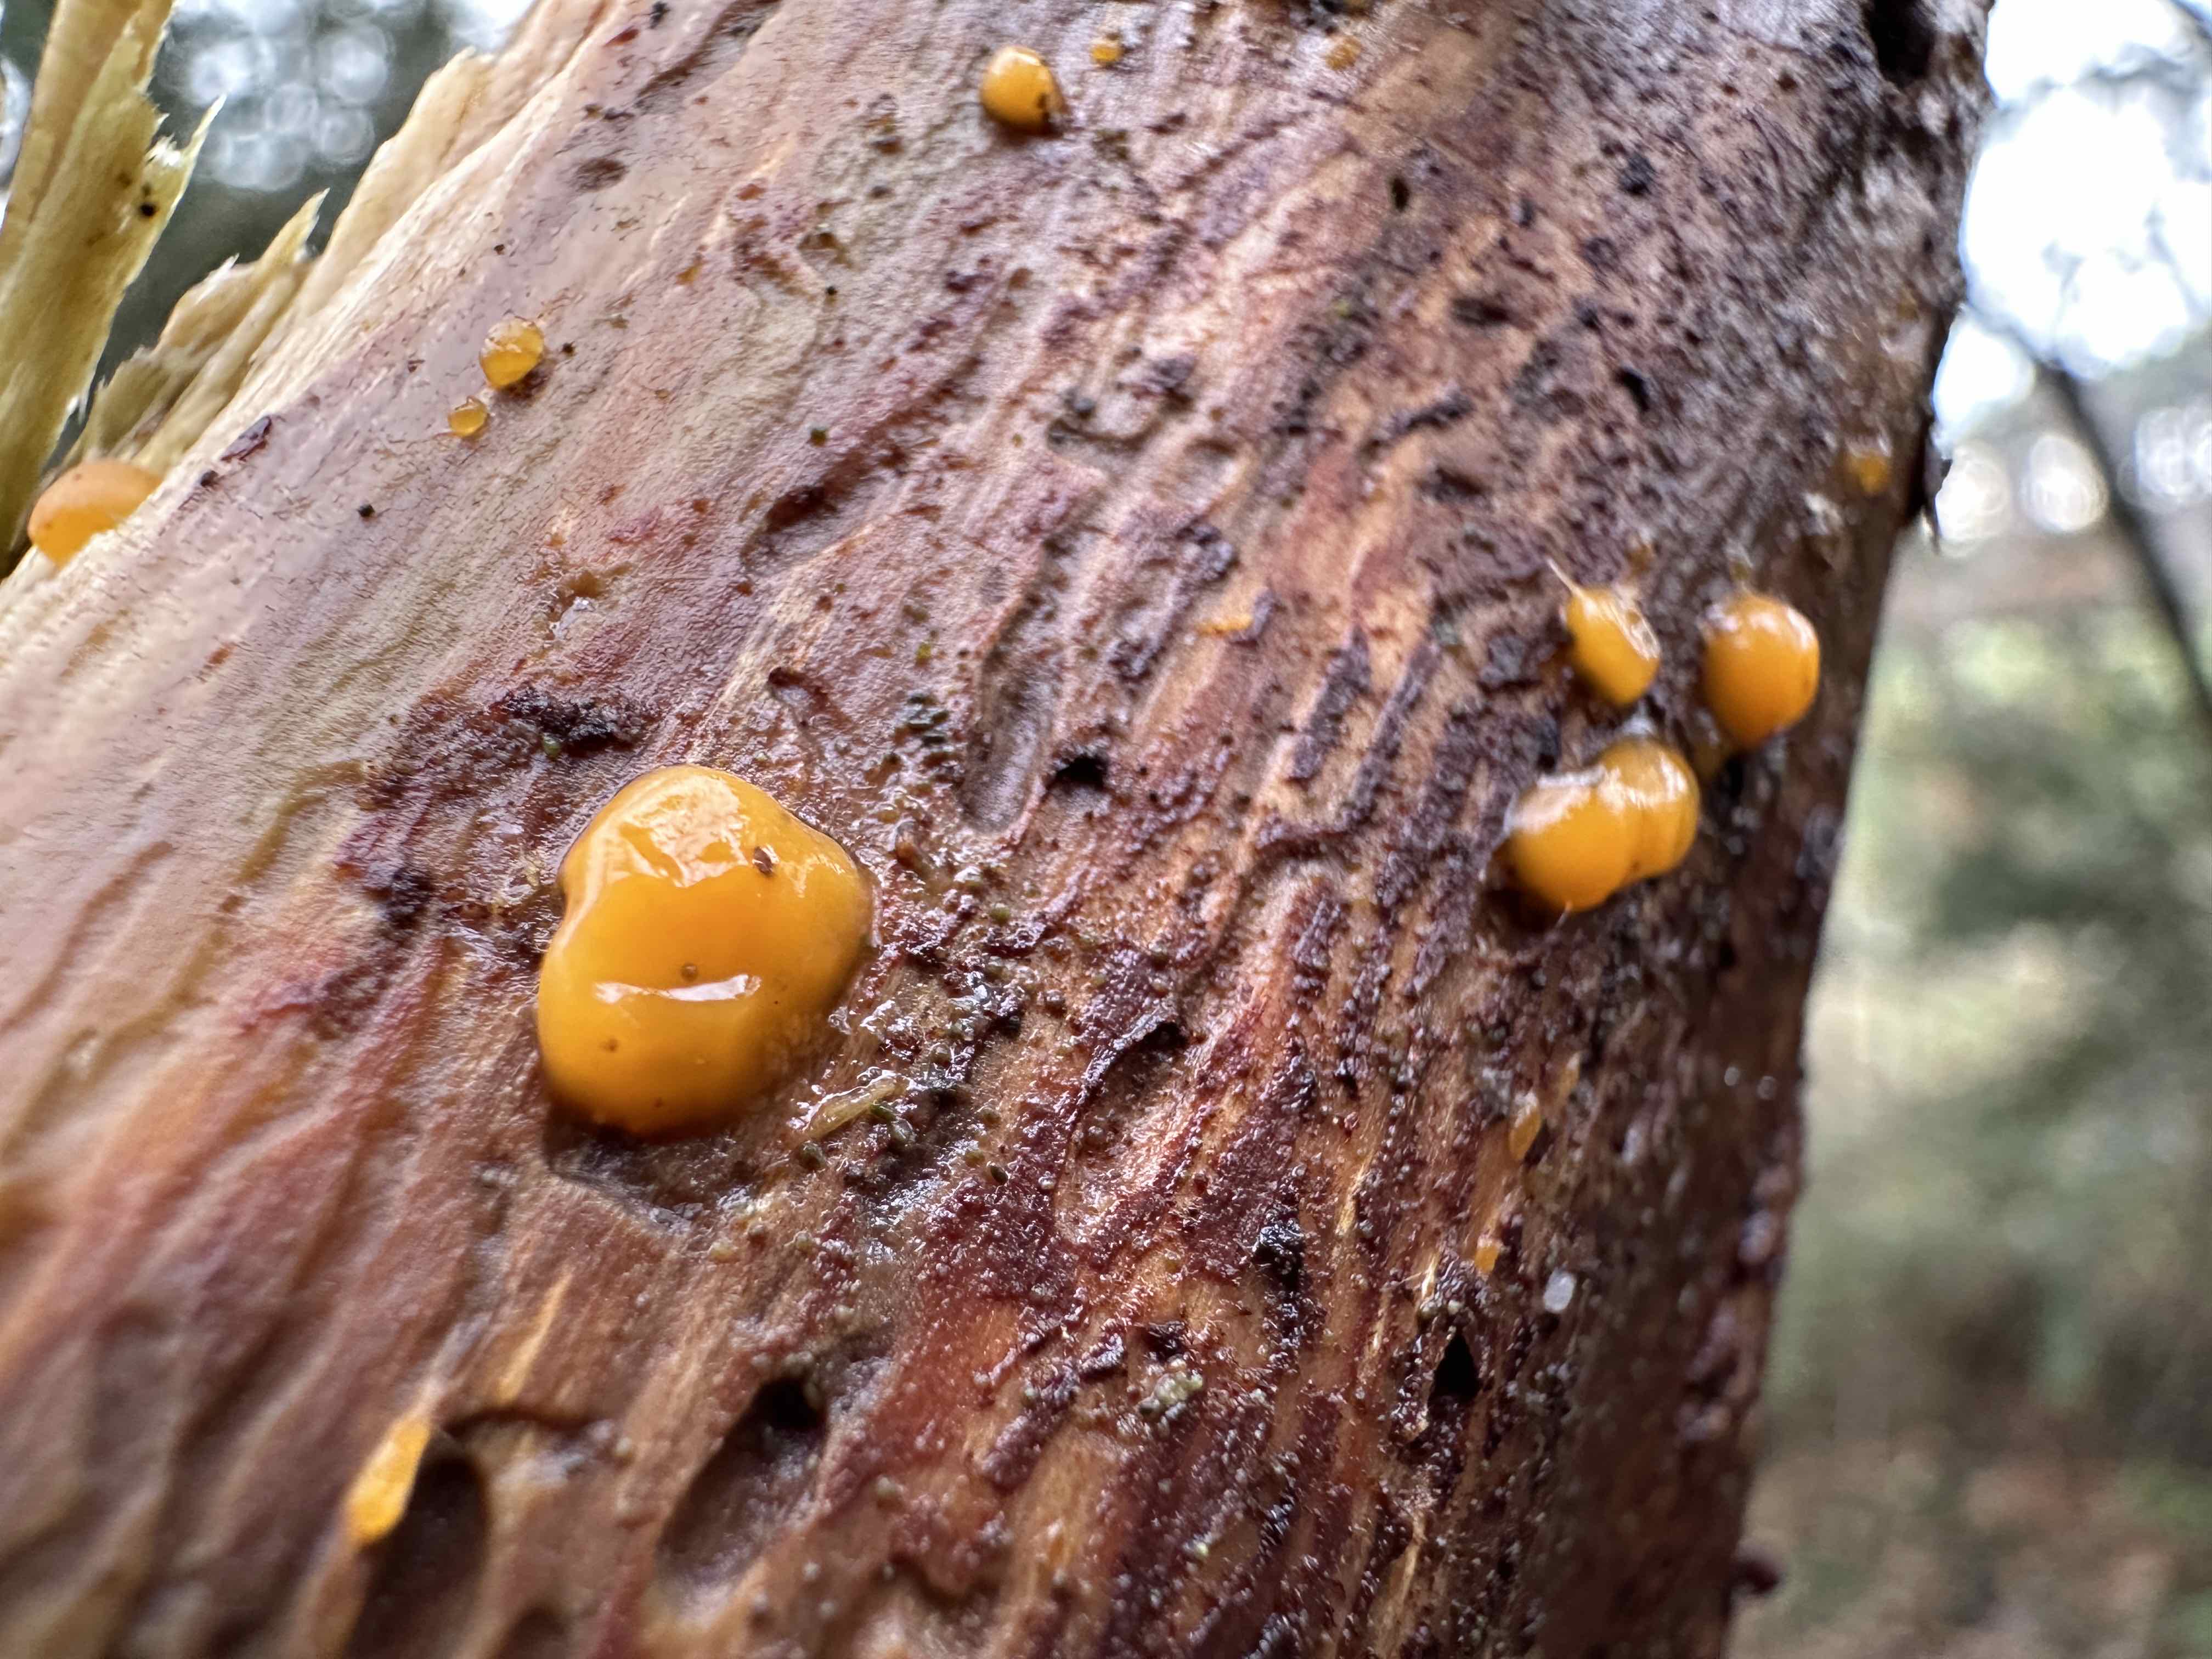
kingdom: Fungi
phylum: Basidiomycota
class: Dacrymycetes
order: Dacrymycetales
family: Dacrymycetaceae
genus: Dacrymyces
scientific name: Dacrymyces stillatus
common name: almindelig tåresvamp
